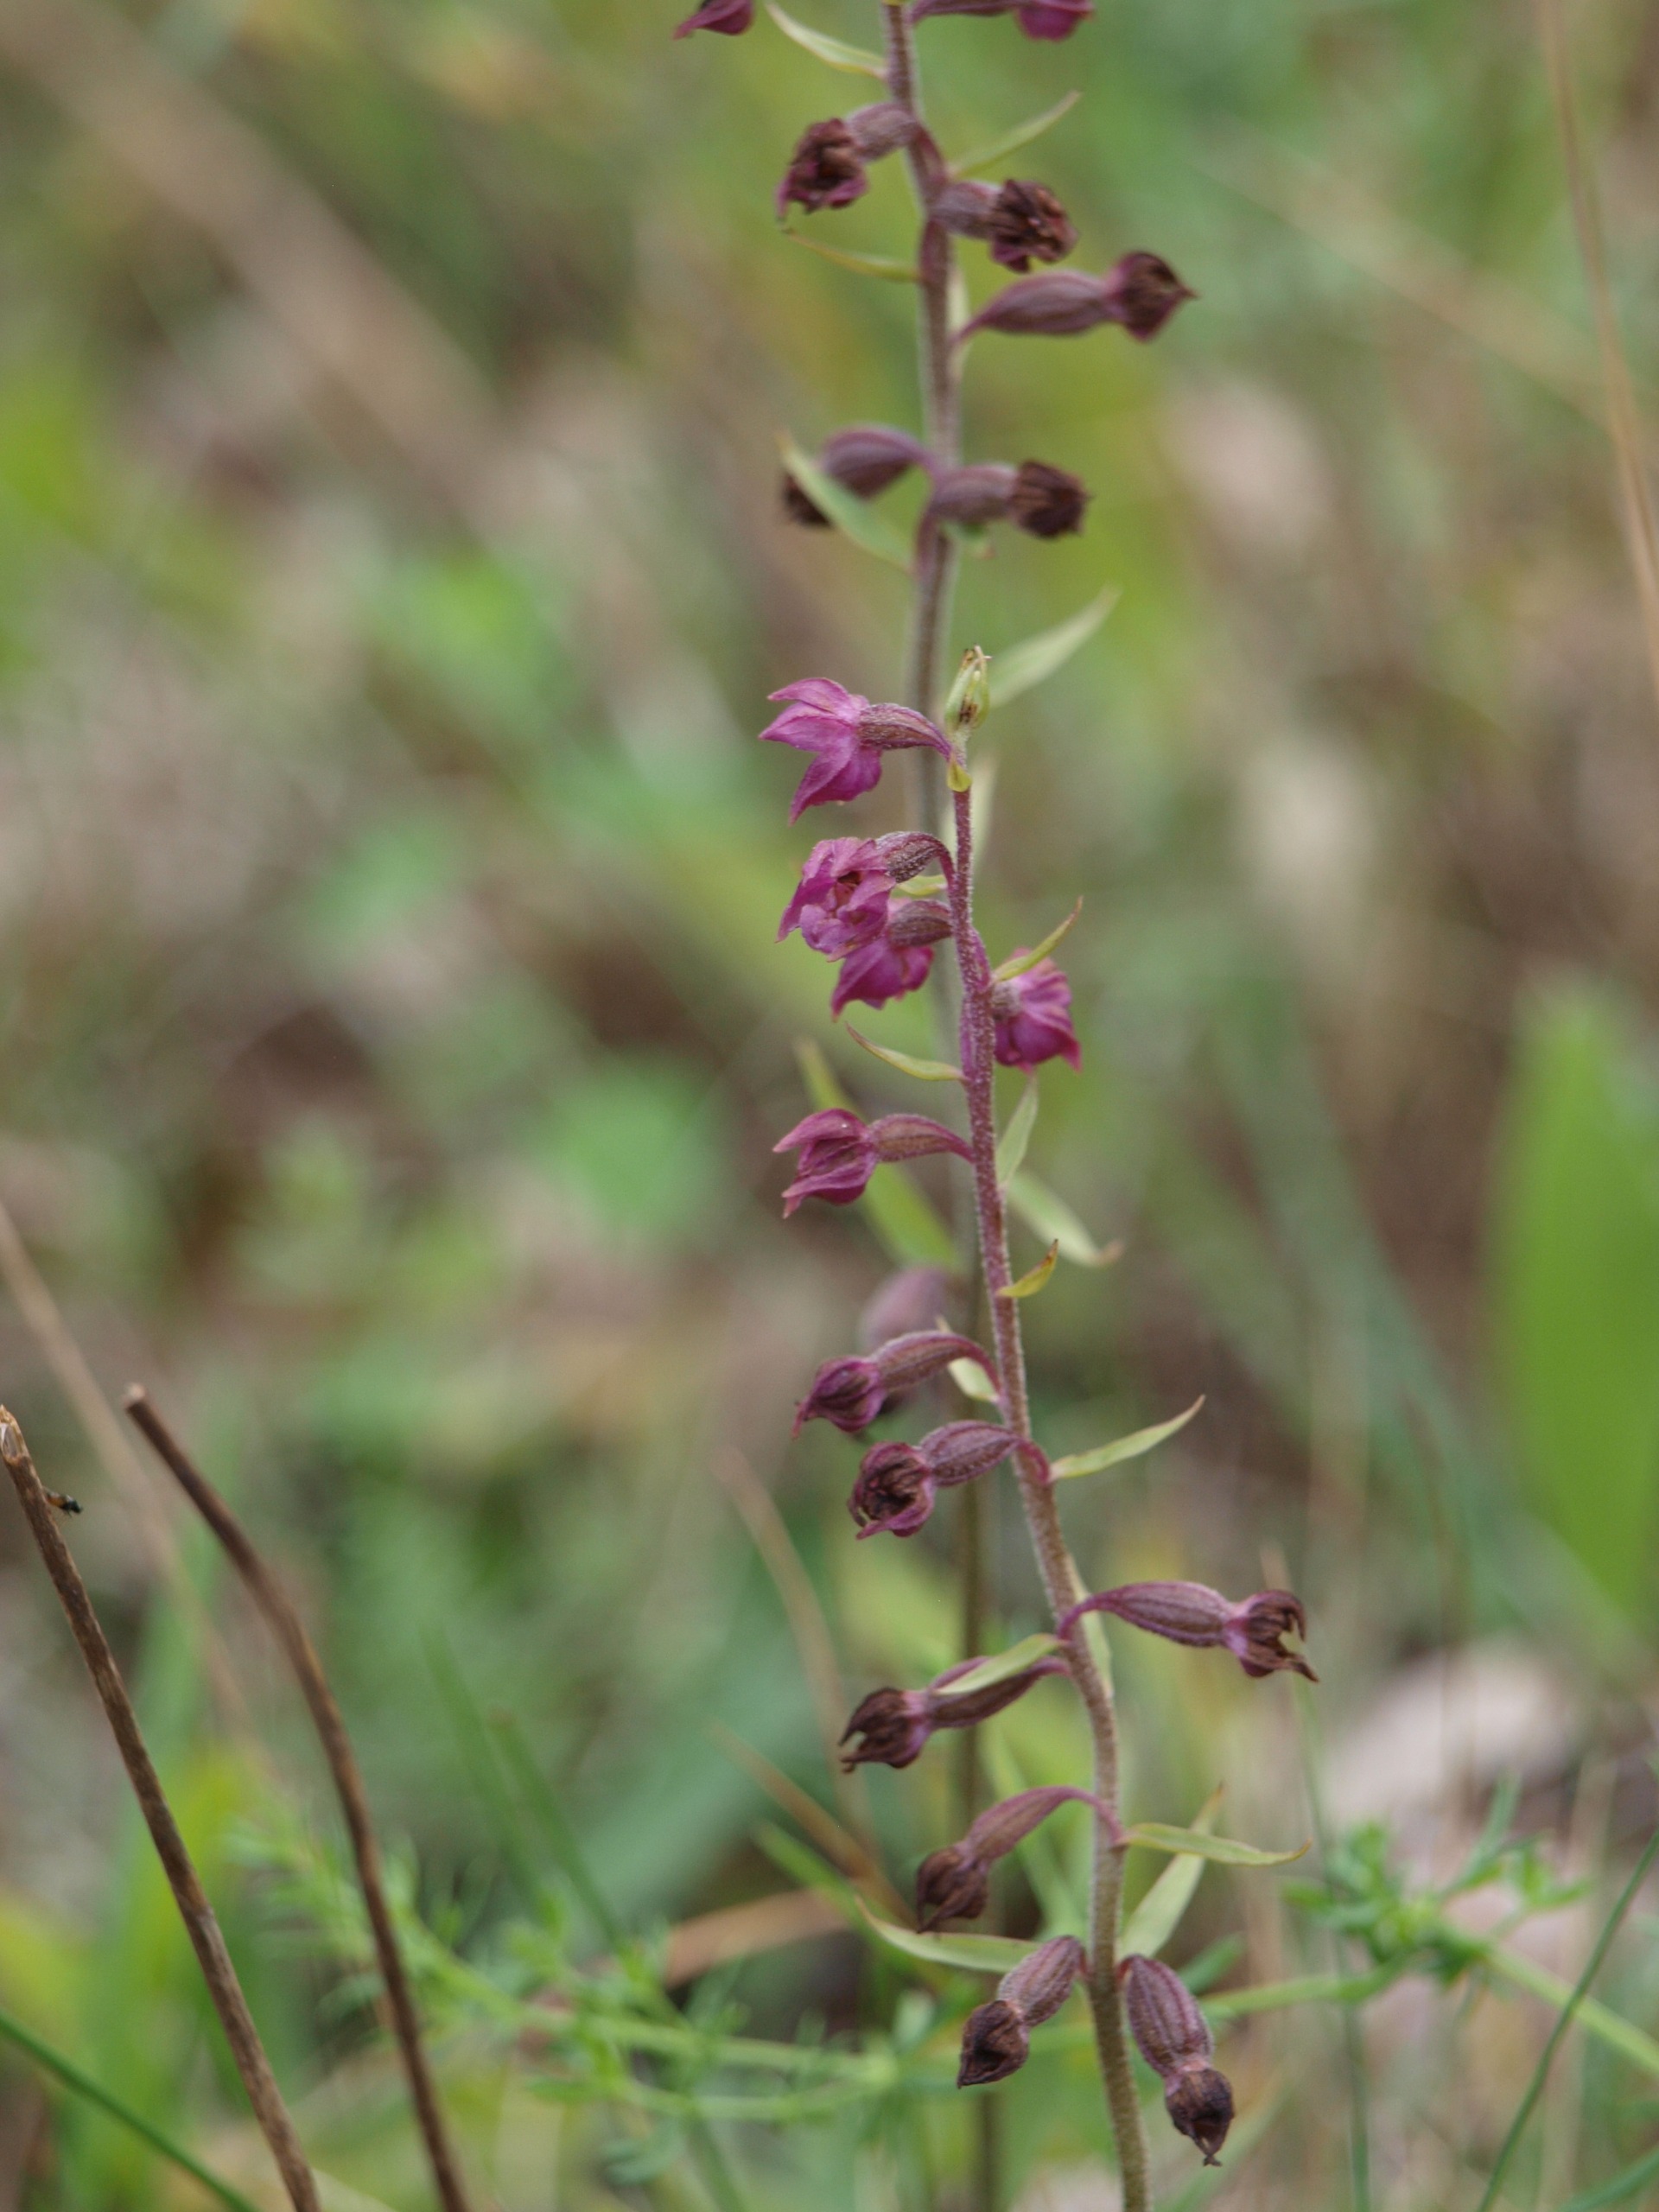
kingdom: Plantae
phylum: Tracheophyta
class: Liliopsida
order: Asparagales
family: Orchidaceae
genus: Epipactis
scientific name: Epipactis atrorubens
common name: Rød hullæbe
